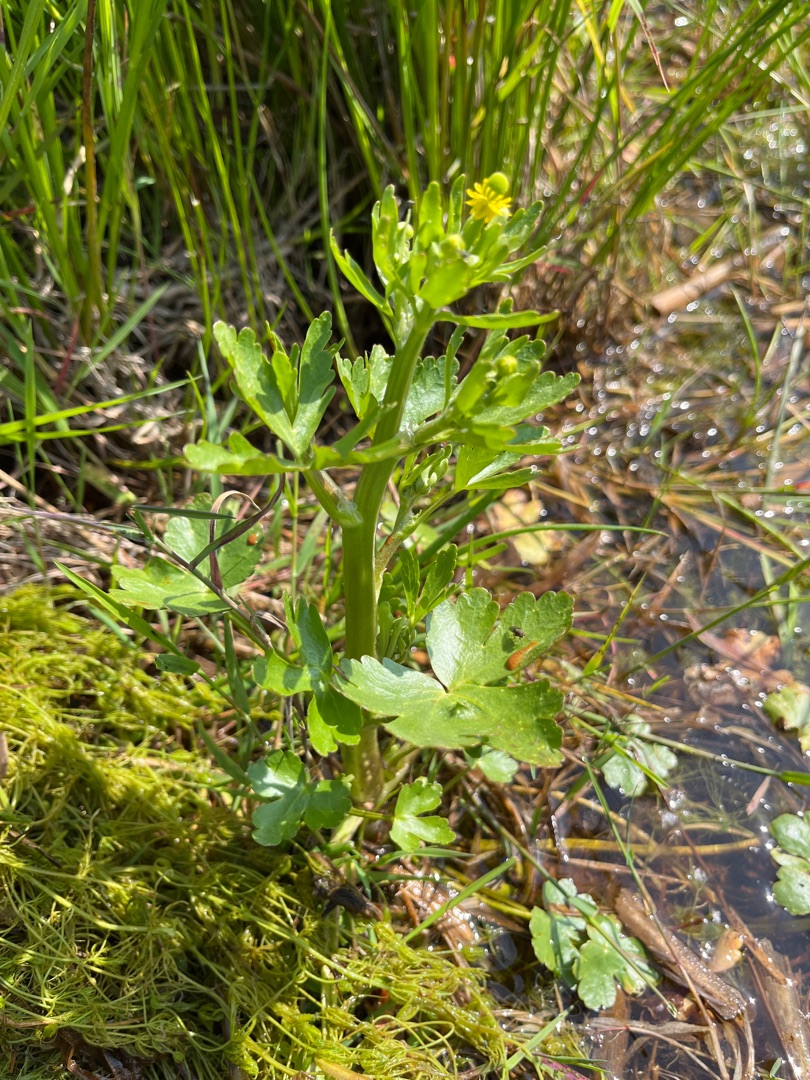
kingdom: Plantae
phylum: Tracheophyta
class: Magnoliopsida
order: Ranunculales
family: Ranunculaceae
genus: Ranunculus
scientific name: Ranunculus sceleratus
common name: Tigger-ranunkel
